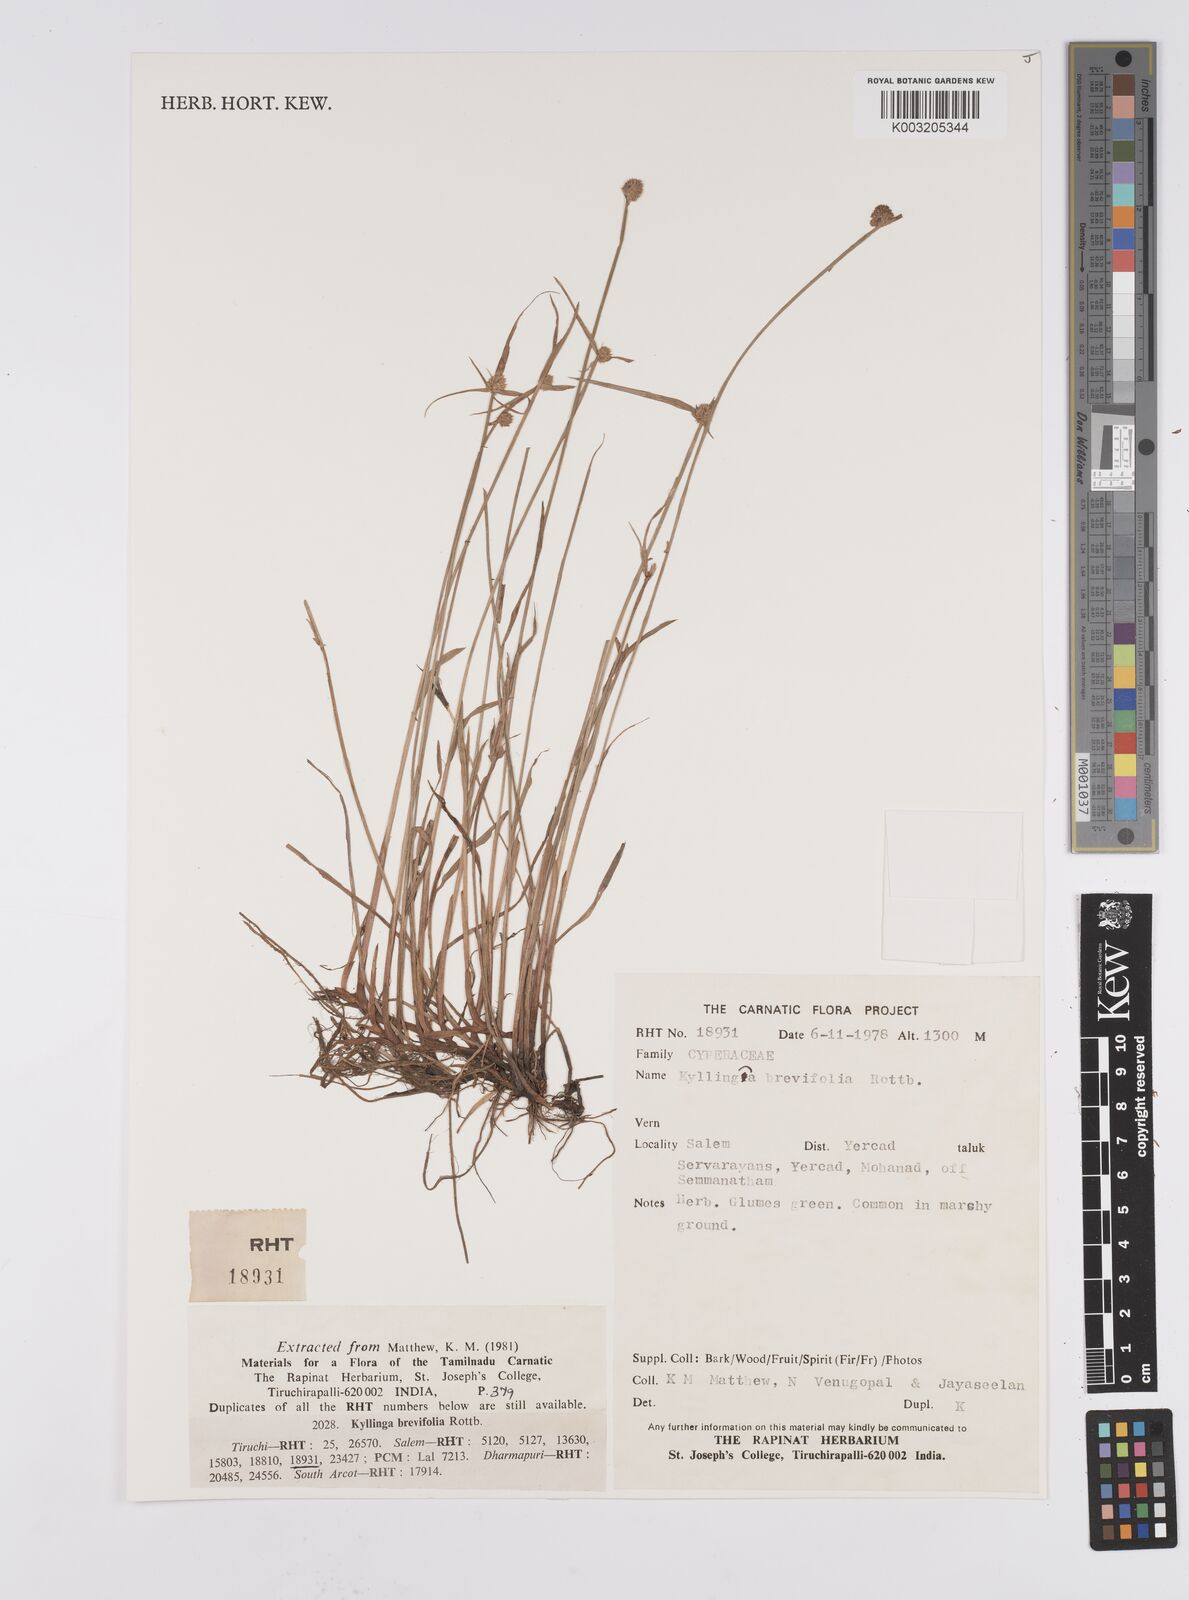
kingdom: Plantae
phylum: Tracheophyta
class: Liliopsida
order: Poales
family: Cyperaceae
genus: Cyperus
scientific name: Cyperus brevifolius
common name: Globe kyllinga
